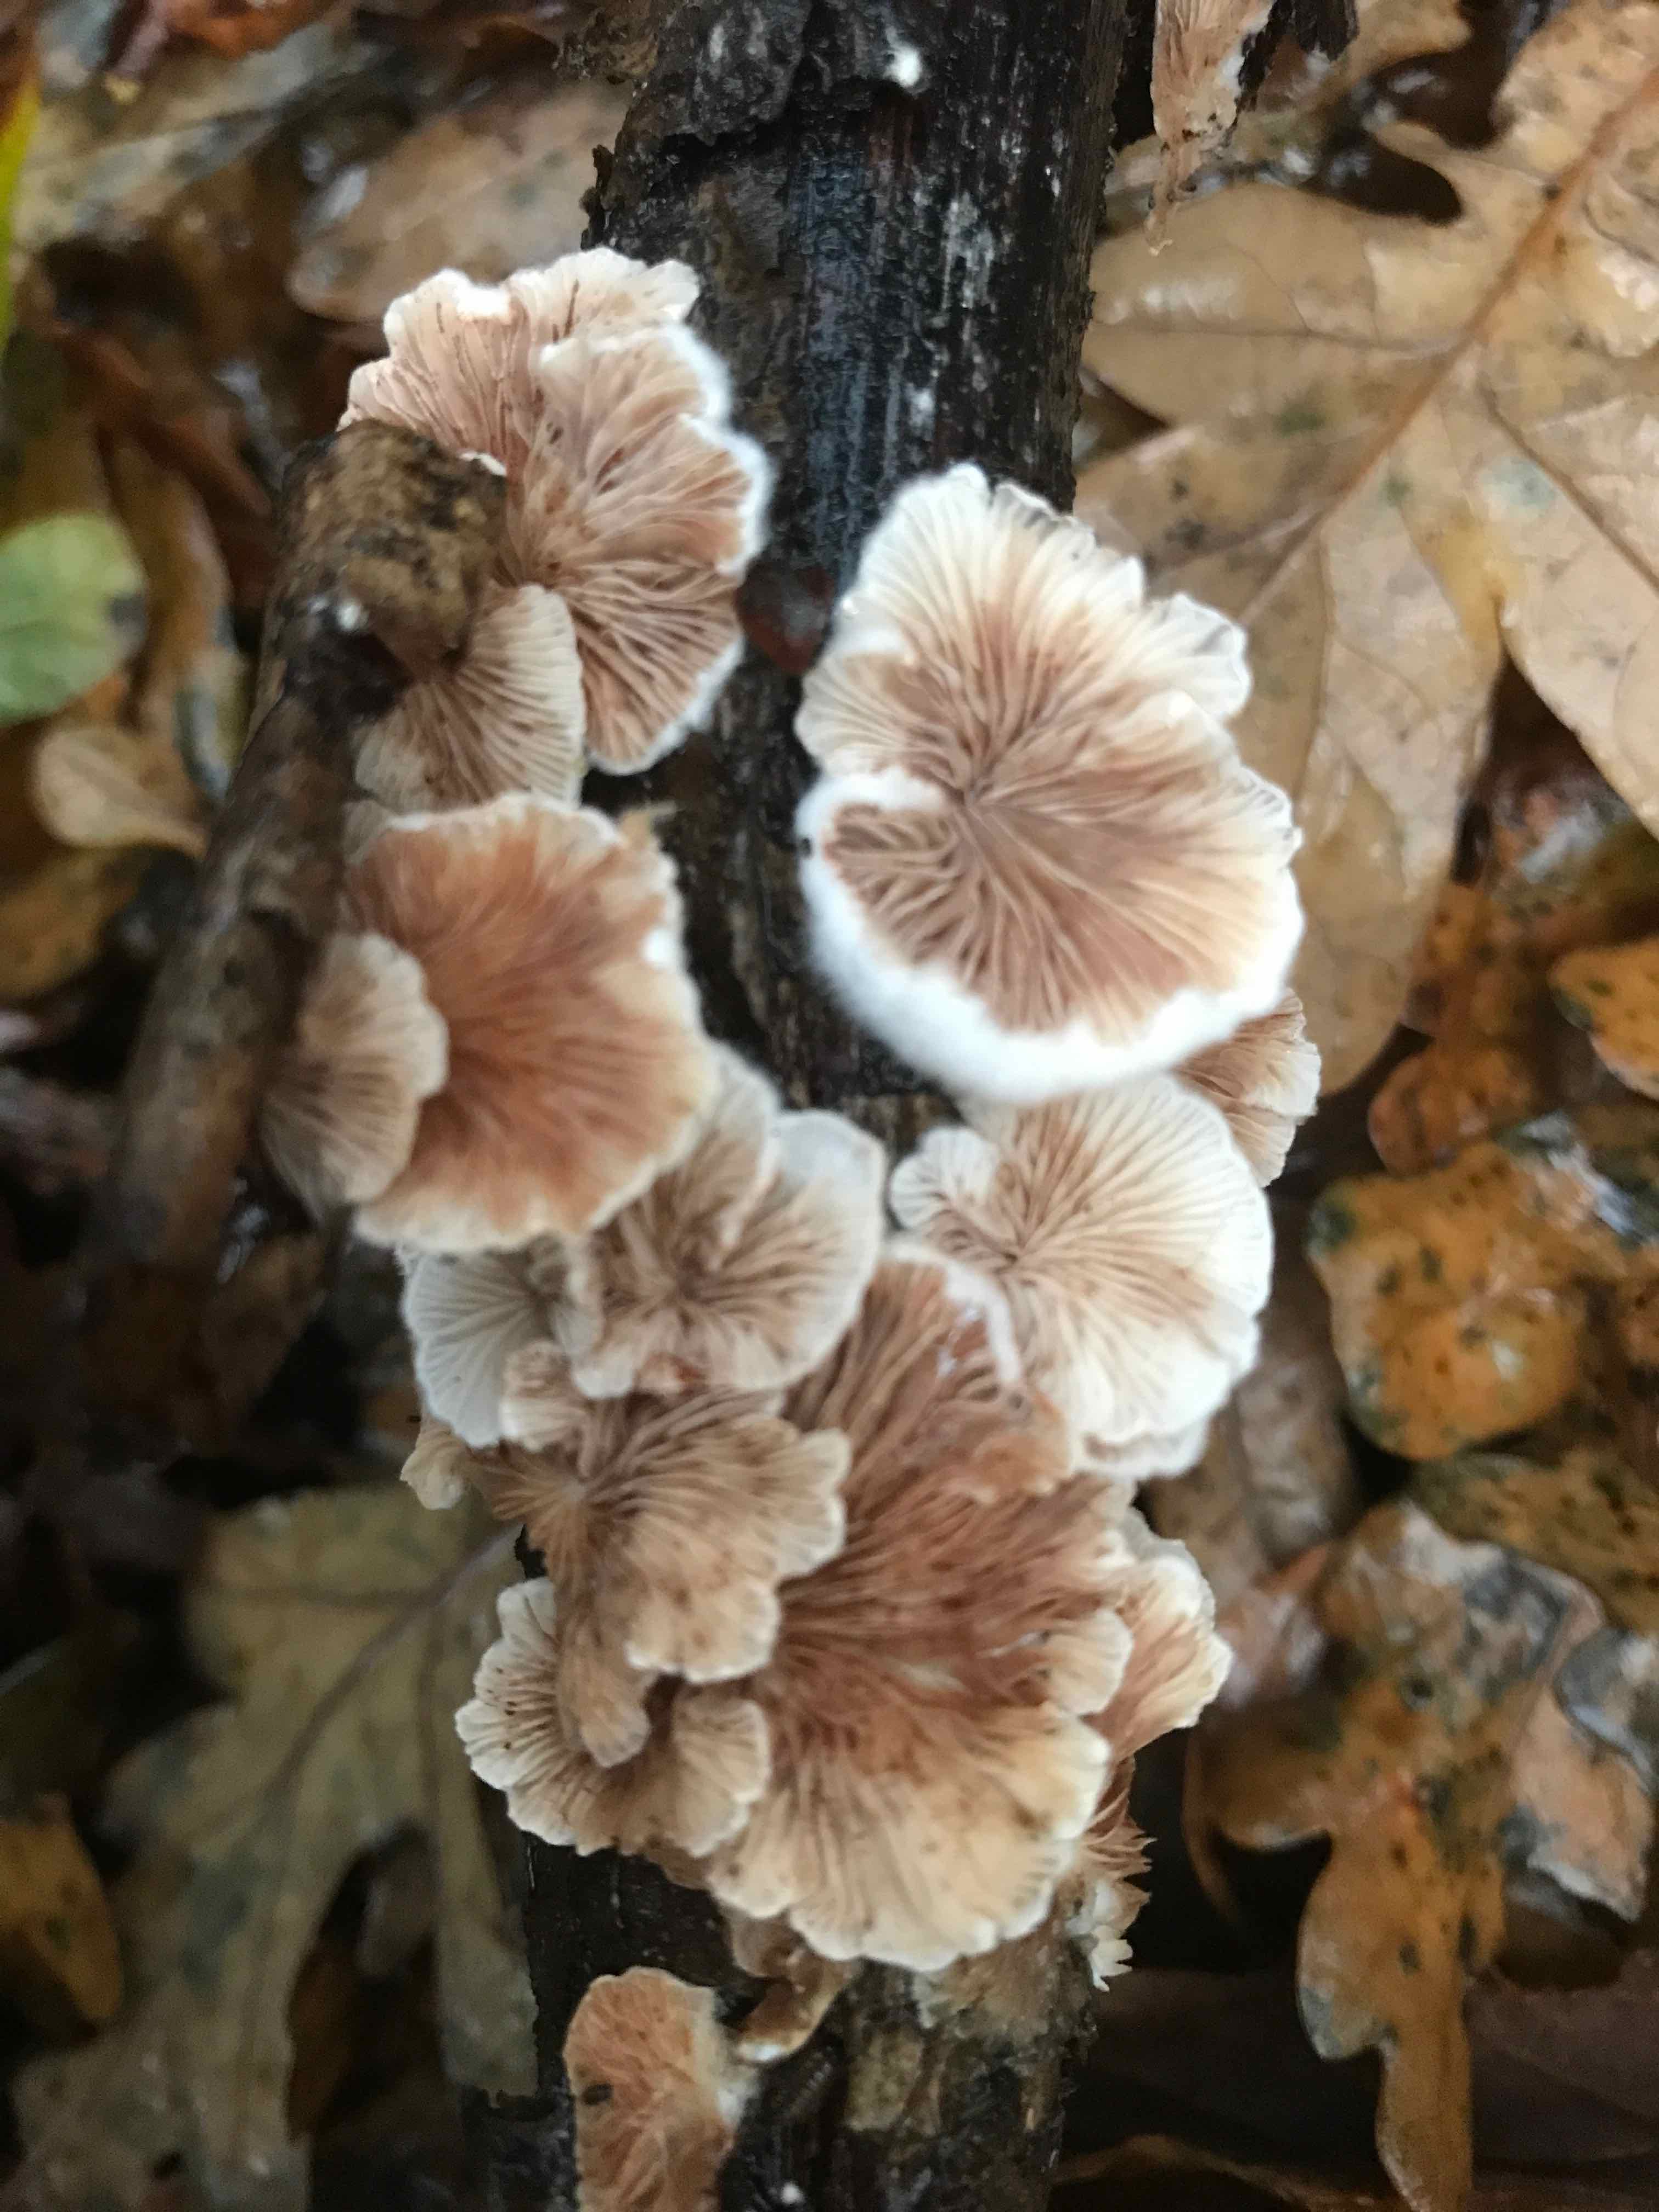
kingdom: Fungi
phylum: Basidiomycota
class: Agaricomycetes
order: Agaricales
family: Crepidotaceae
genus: Crepidotus
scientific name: Crepidotus
